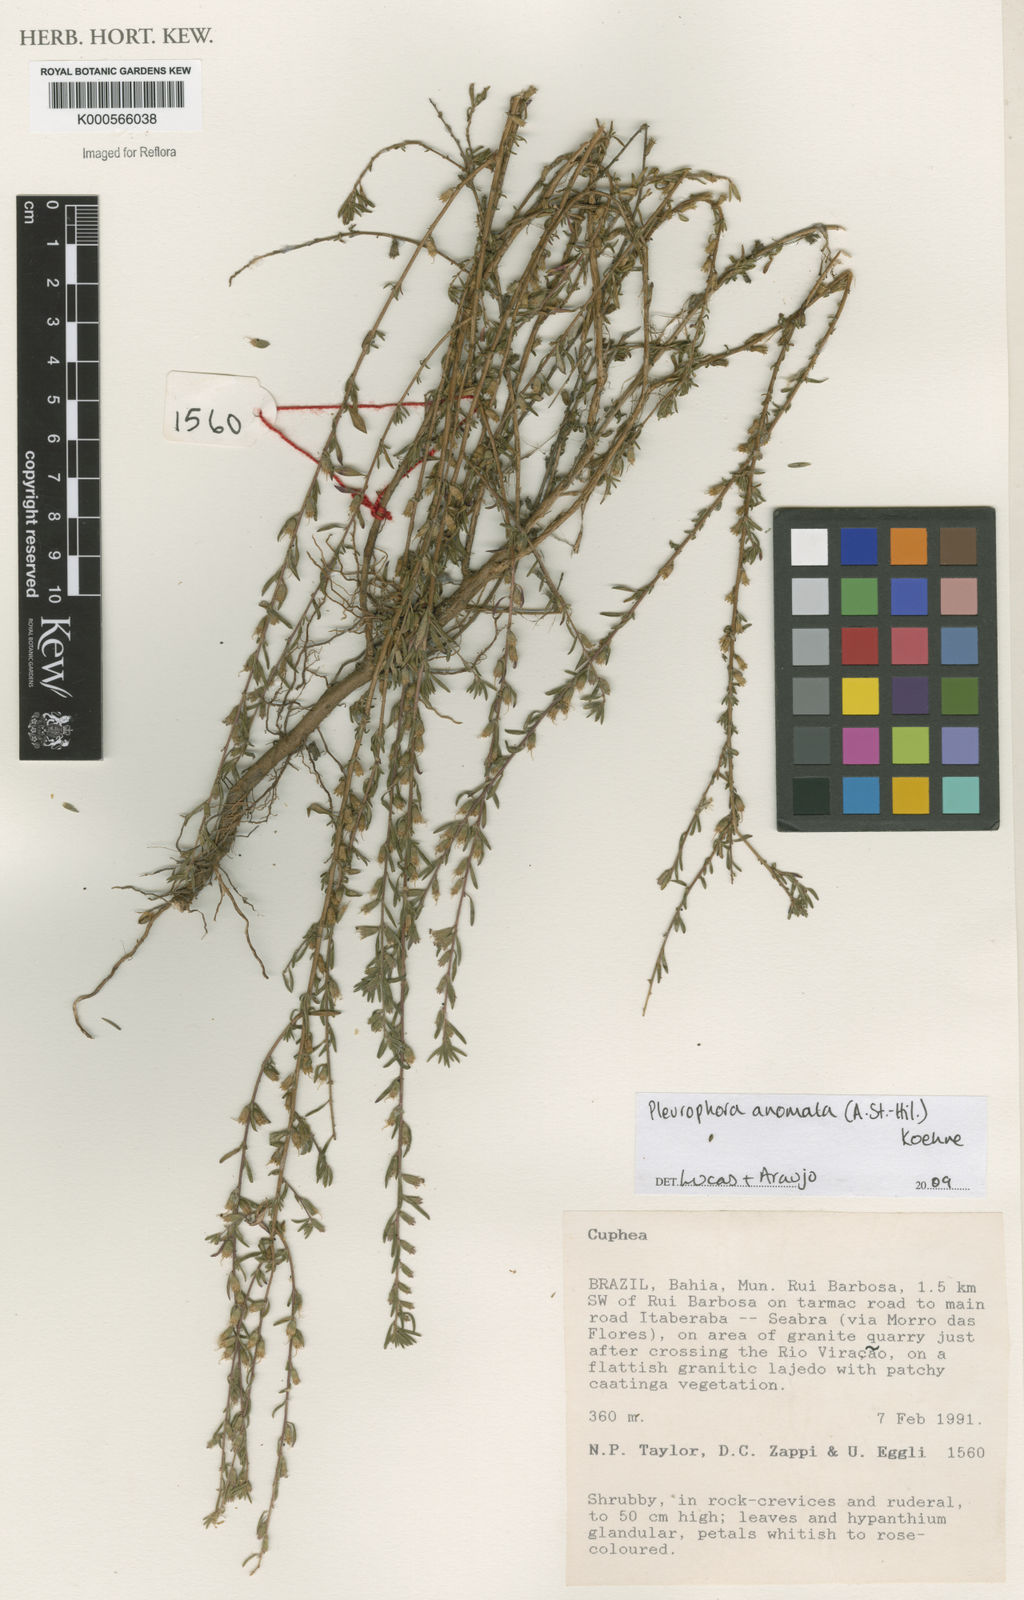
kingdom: Plantae
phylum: Tracheophyta
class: Magnoliopsida
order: Myrtales
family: Lythraceae
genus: Pleurophora
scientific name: Pleurophora anomala
